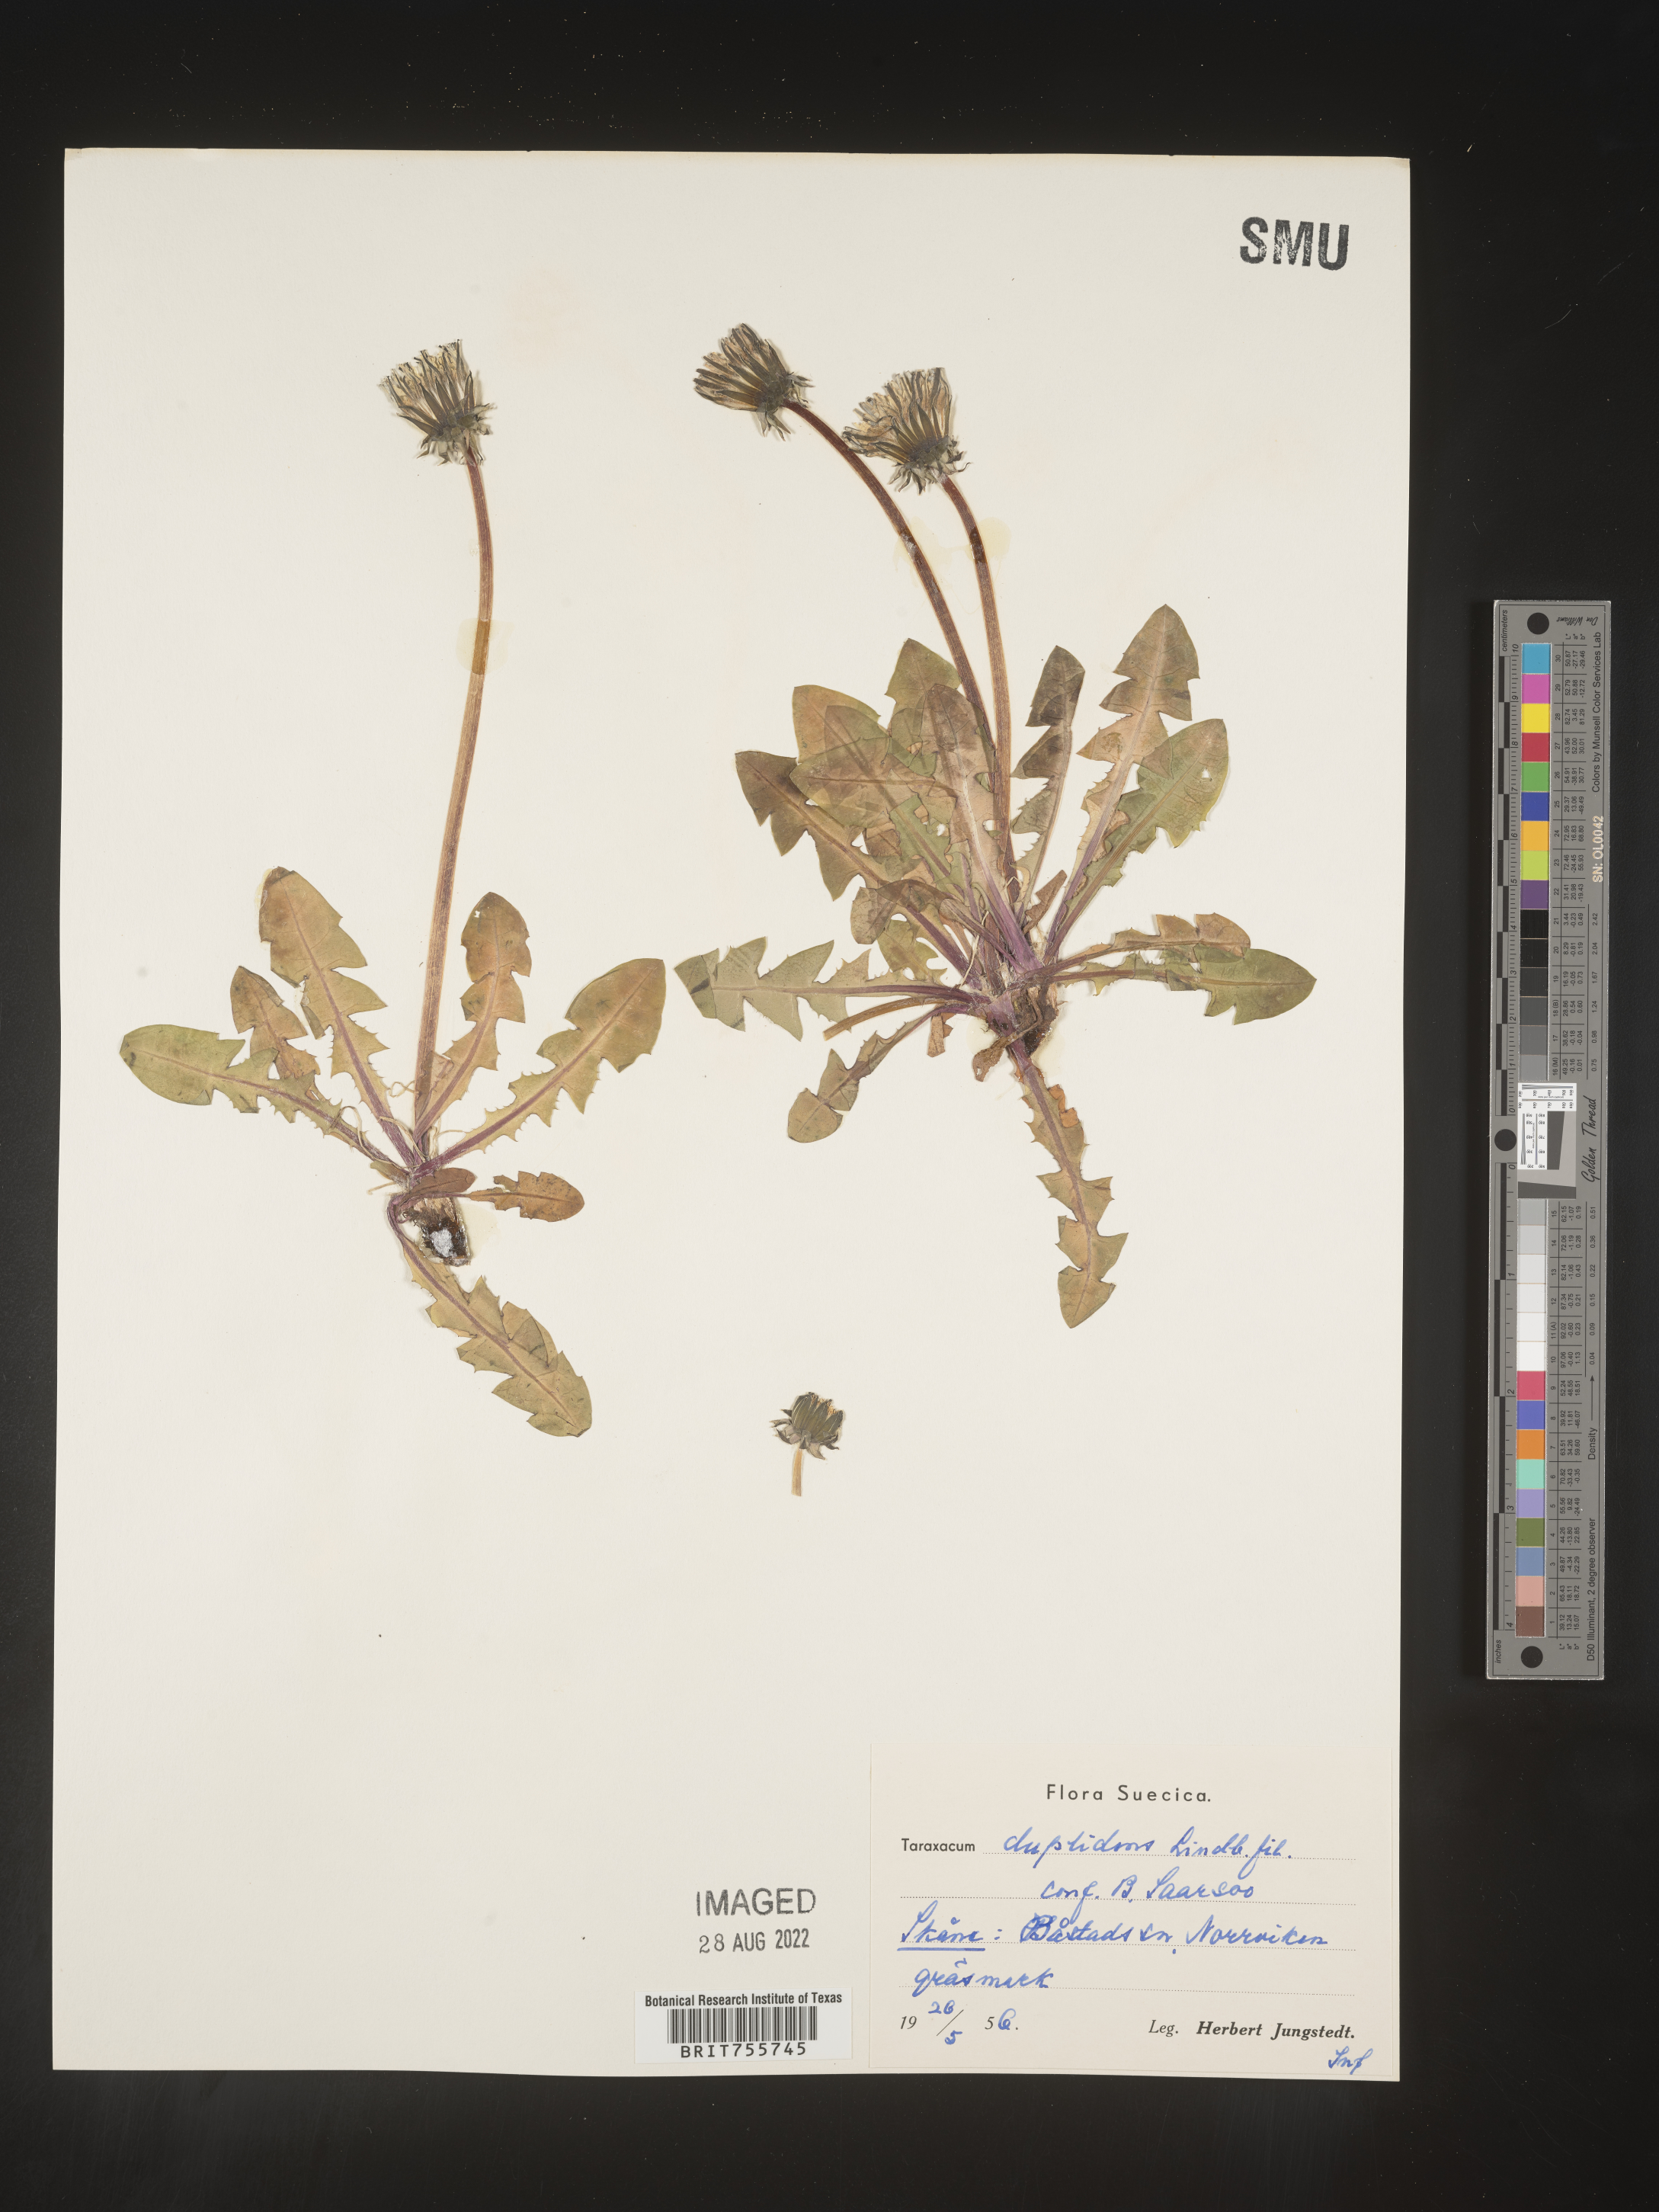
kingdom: Plantae
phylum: Tracheophyta
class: Magnoliopsida
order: Asterales
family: Asteraceae
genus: Taraxacum
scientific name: Taraxacum
